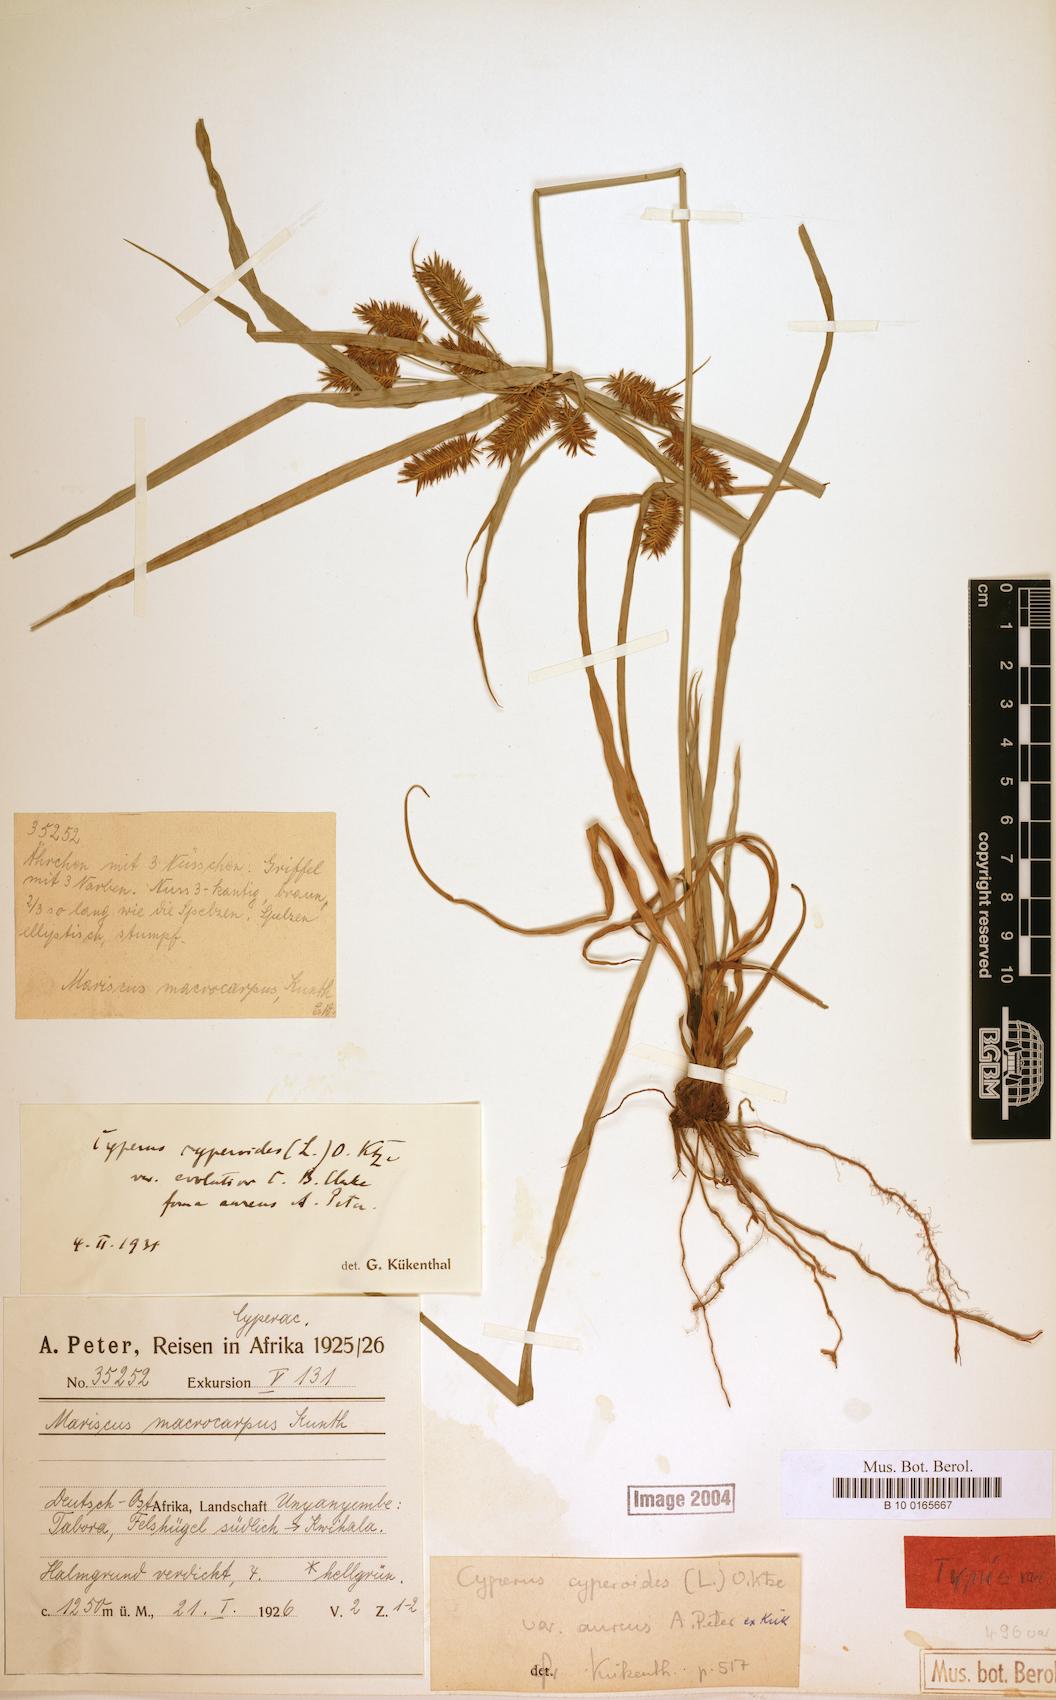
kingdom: Plantae
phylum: Tracheophyta
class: Liliopsida
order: Poales
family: Cyperaceae
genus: Cyperus
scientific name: Cyperus cyperoides
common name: Pacific island flat sedge
